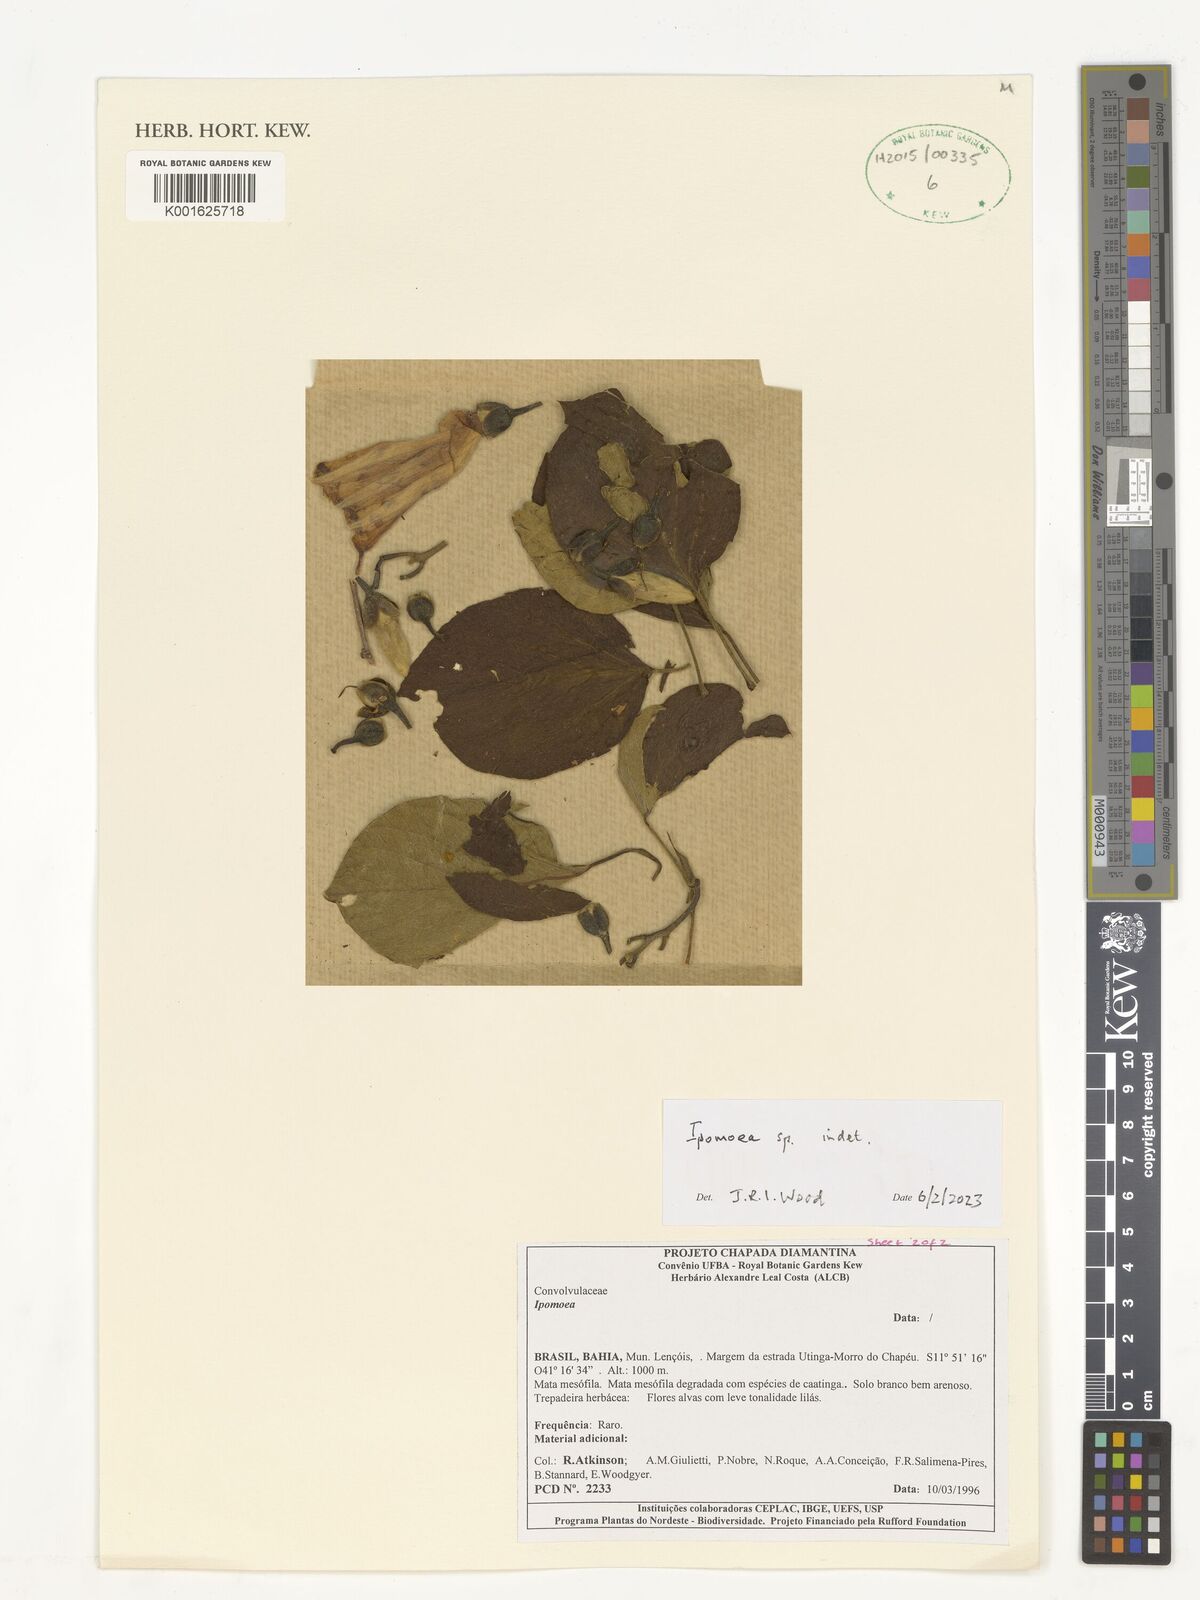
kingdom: Plantae
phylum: Tracheophyta
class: Magnoliopsida
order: Solanales
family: Convolvulaceae
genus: Ipomoea
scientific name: Ipomoea
